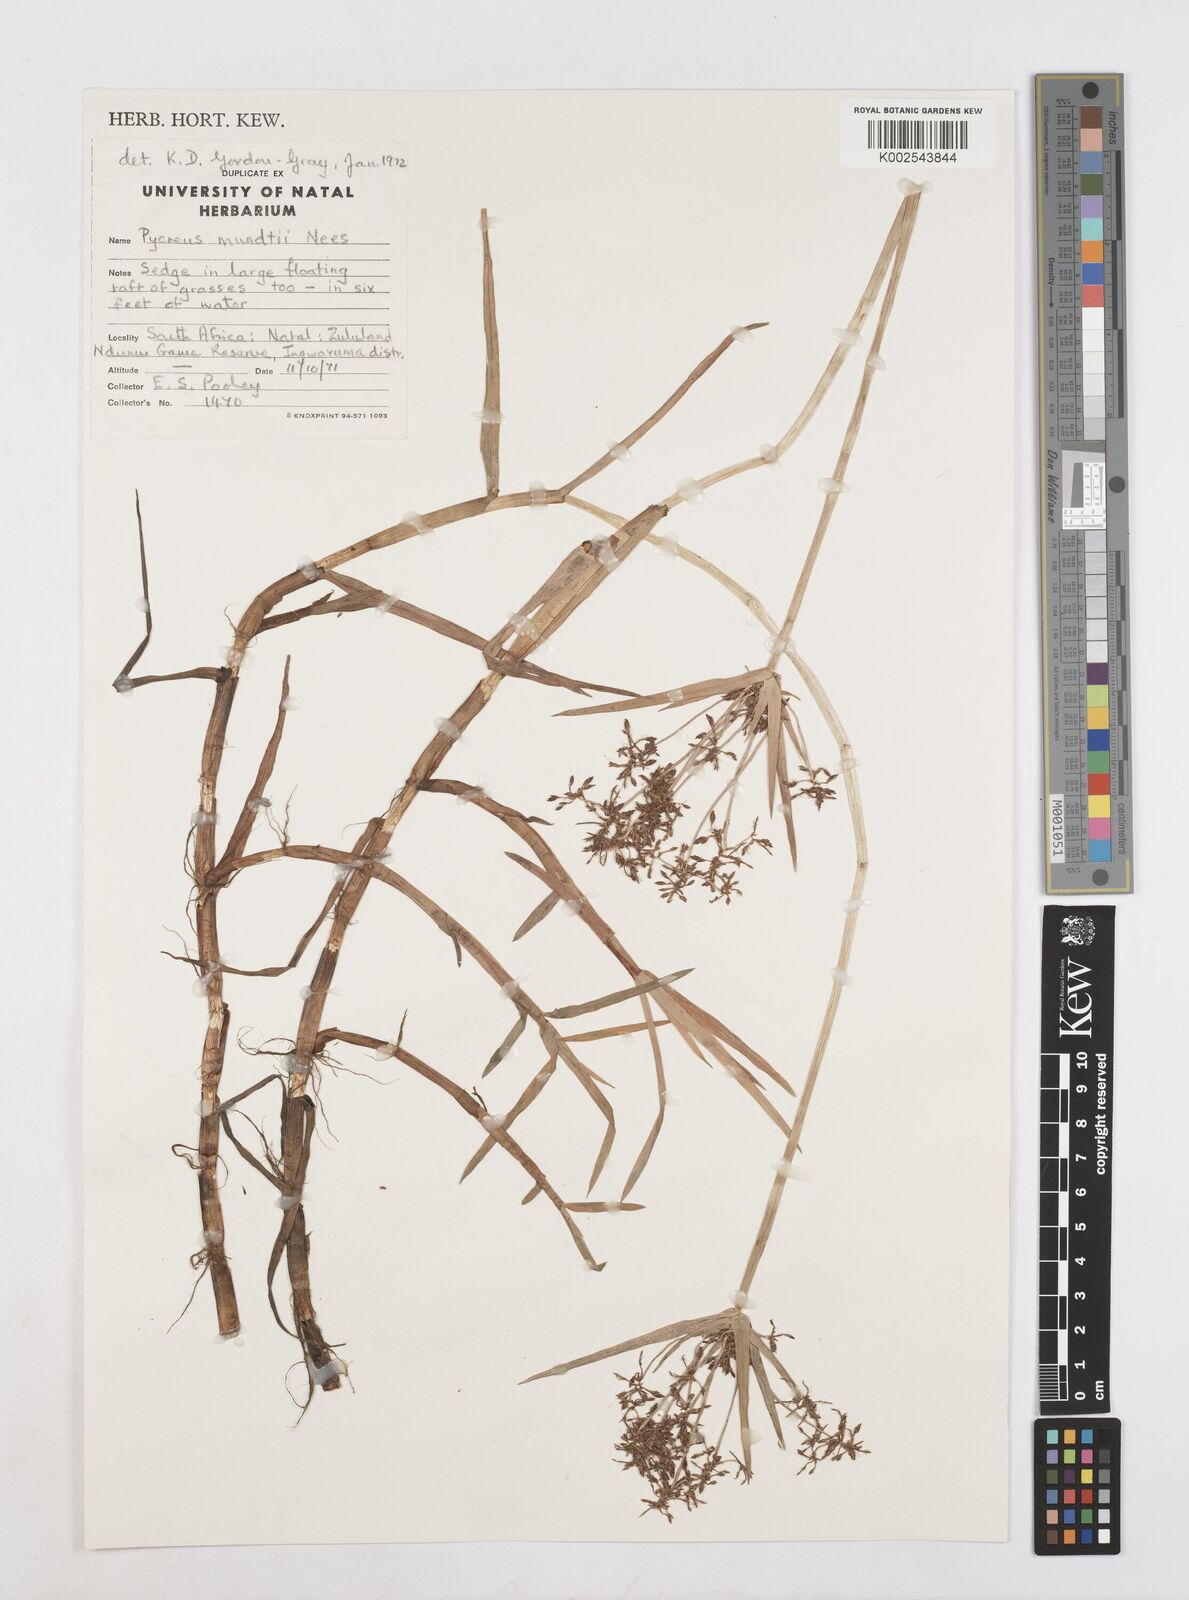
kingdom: Plantae
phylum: Tracheophyta
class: Liliopsida
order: Poales
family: Cyperaceae
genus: Cyperus
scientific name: Cyperus mundii
